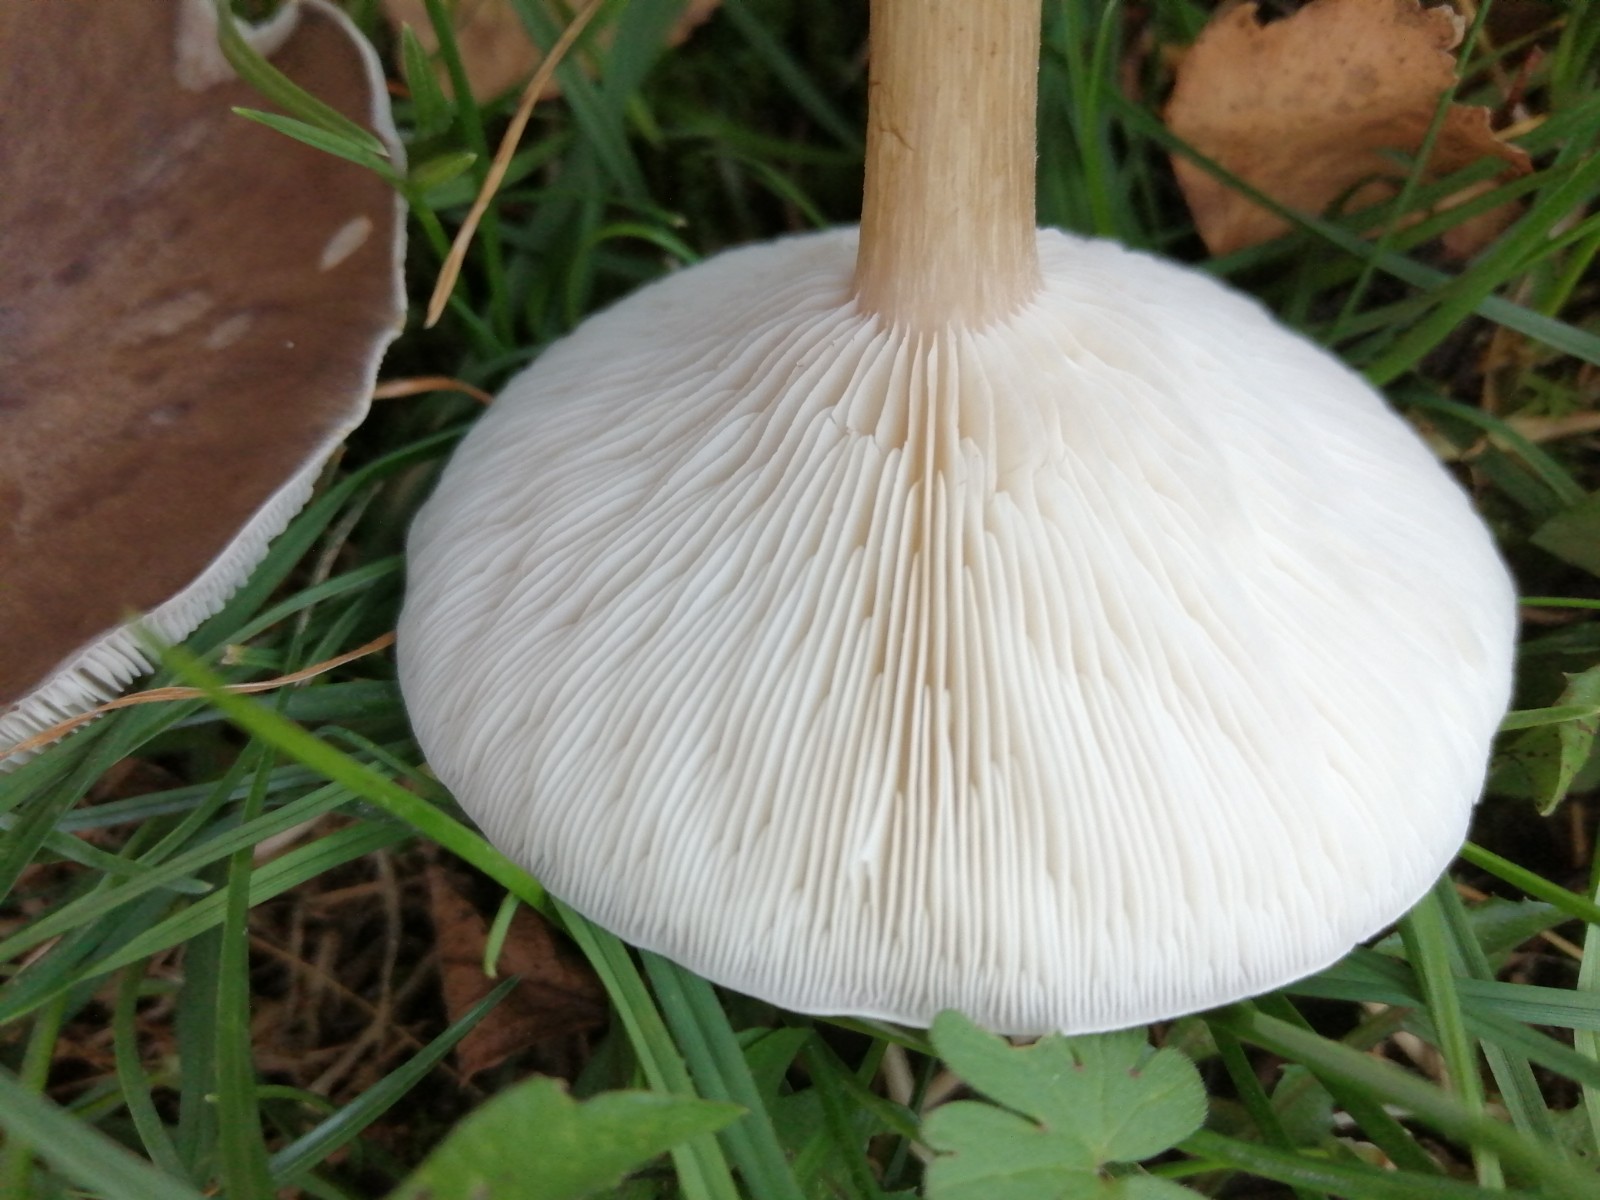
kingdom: Fungi
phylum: Basidiomycota
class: Agaricomycetes
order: Agaricales
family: Pluteaceae
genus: Pluteus
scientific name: Pluteus cervinus
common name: sodfarvet skærmhat
